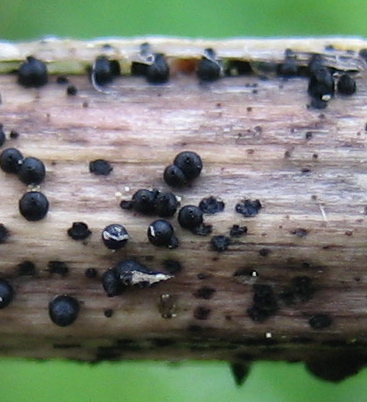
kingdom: Fungi
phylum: Ascomycota
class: Dothideomycetes
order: Pleosporales
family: Leptosphaeriaceae
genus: Leptosphaeria
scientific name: Leptosphaeria
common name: kulkegle
